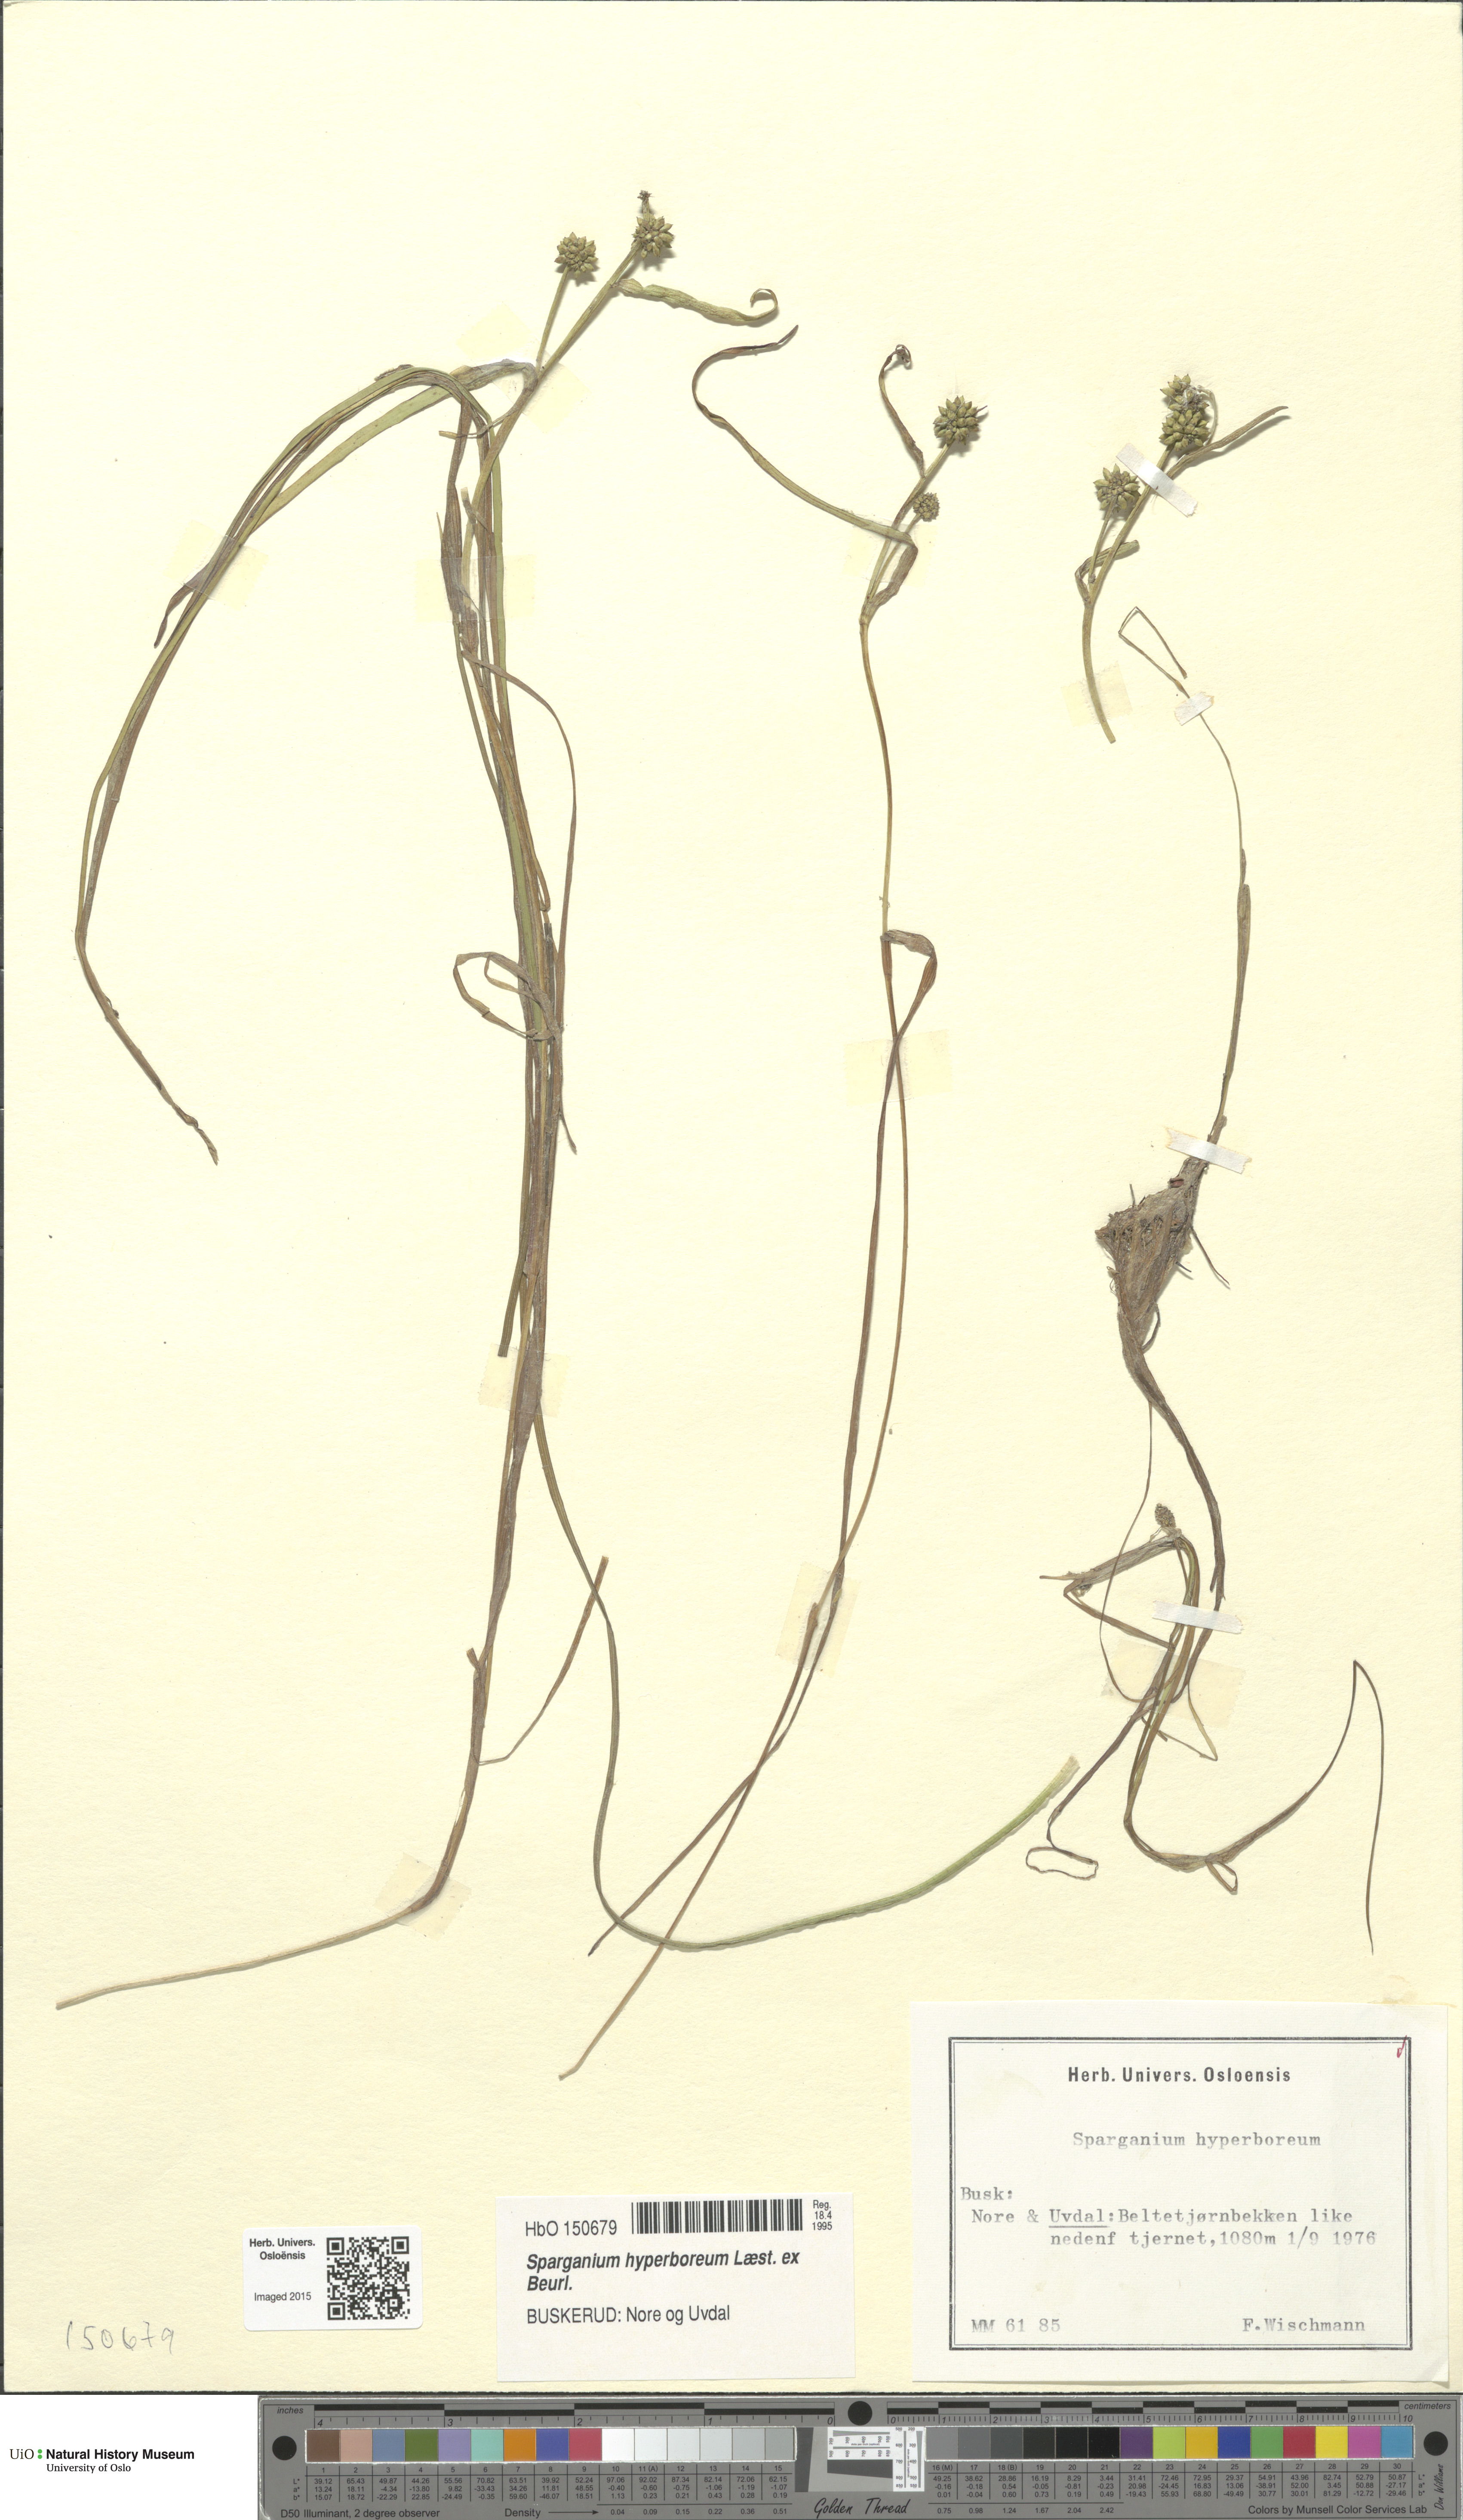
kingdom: Plantae
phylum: Tracheophyta
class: Liliopsida
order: Poales
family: Typhaceae
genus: Sparganium
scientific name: Sparganium hyperboreum
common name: Arctic burreed
